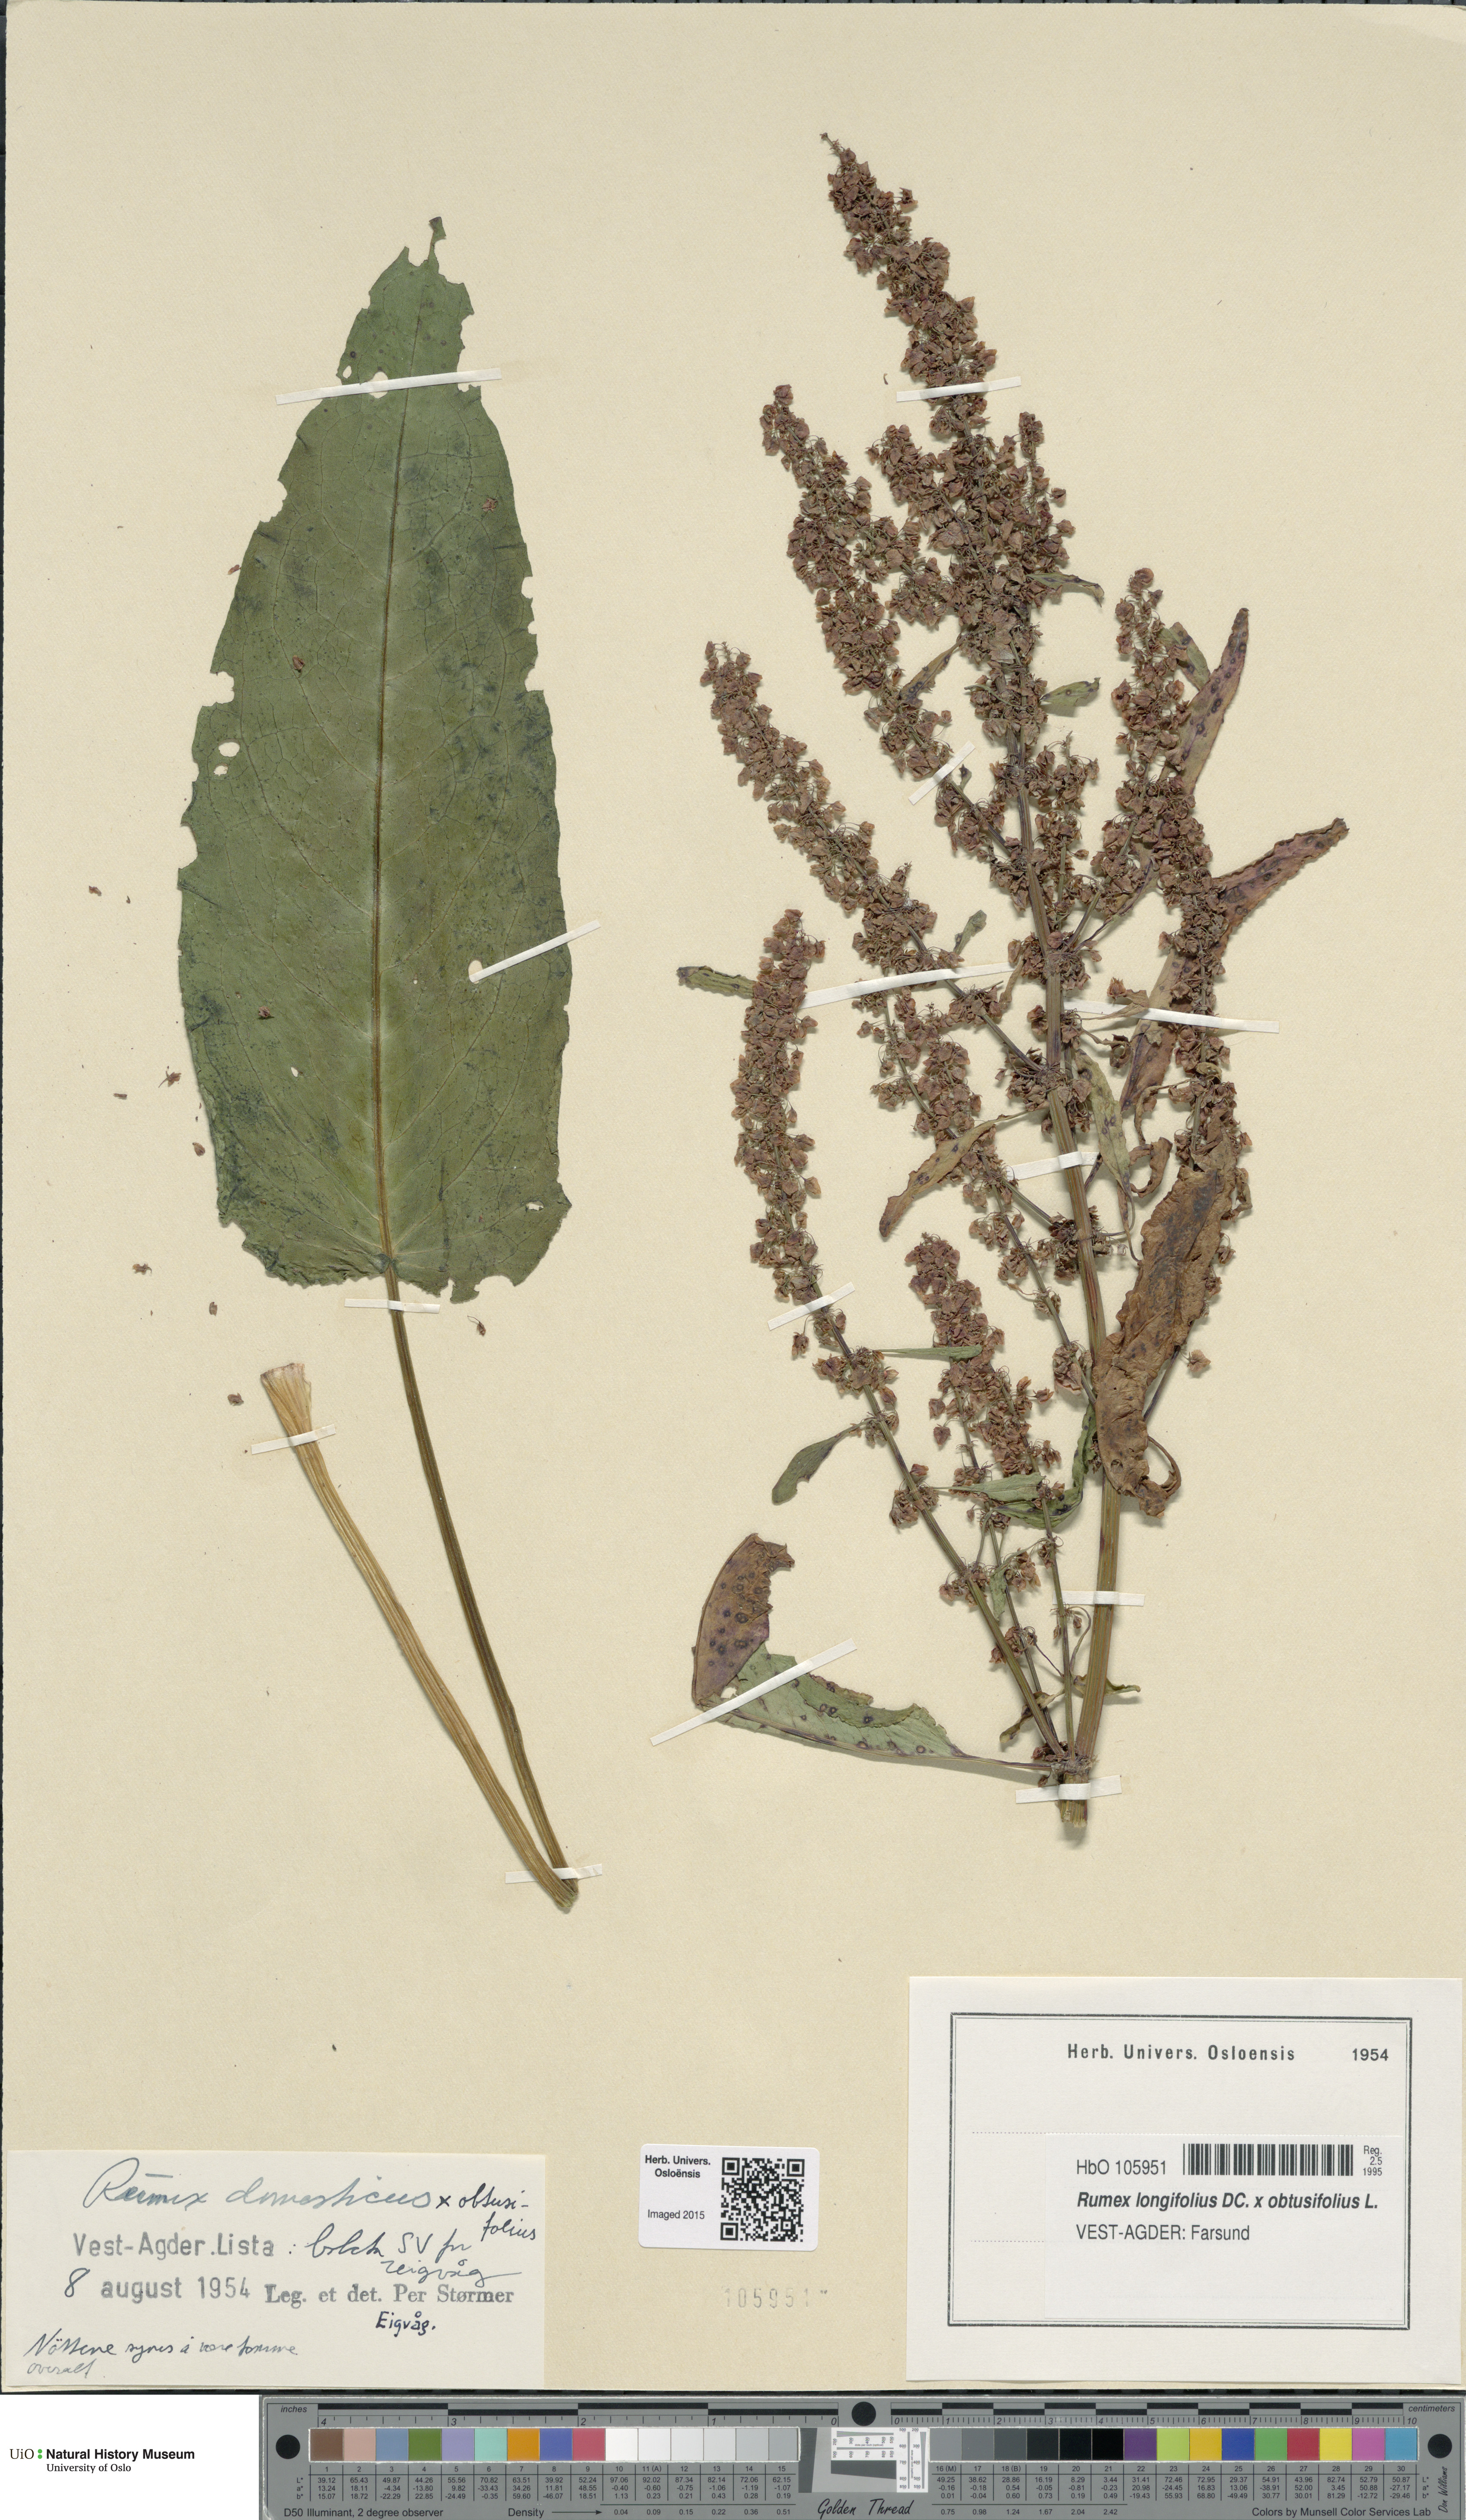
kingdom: Plantae
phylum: Tracheophyta
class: Magnoliopsida
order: Caryophyllales
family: Polygonaceae
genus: Rumex
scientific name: Rumex
